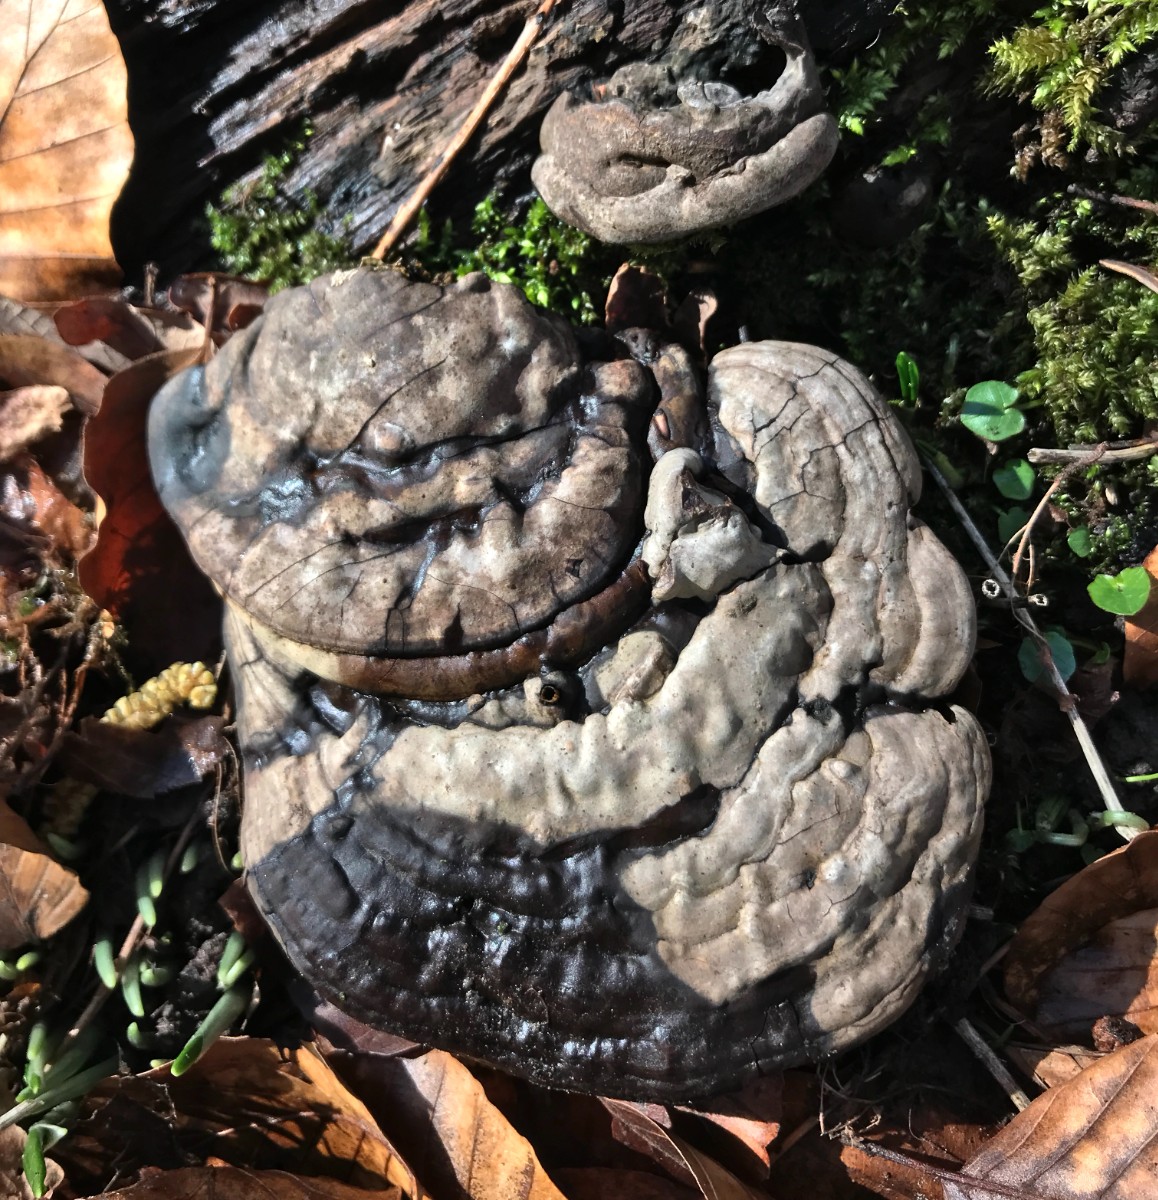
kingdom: Fungi
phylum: Basidiomycota
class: Agaricomycetes
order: Polyporales
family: Polyporaceae
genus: Ganoderma
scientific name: Ganoderma applanatum
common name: flad lakporesvamp
